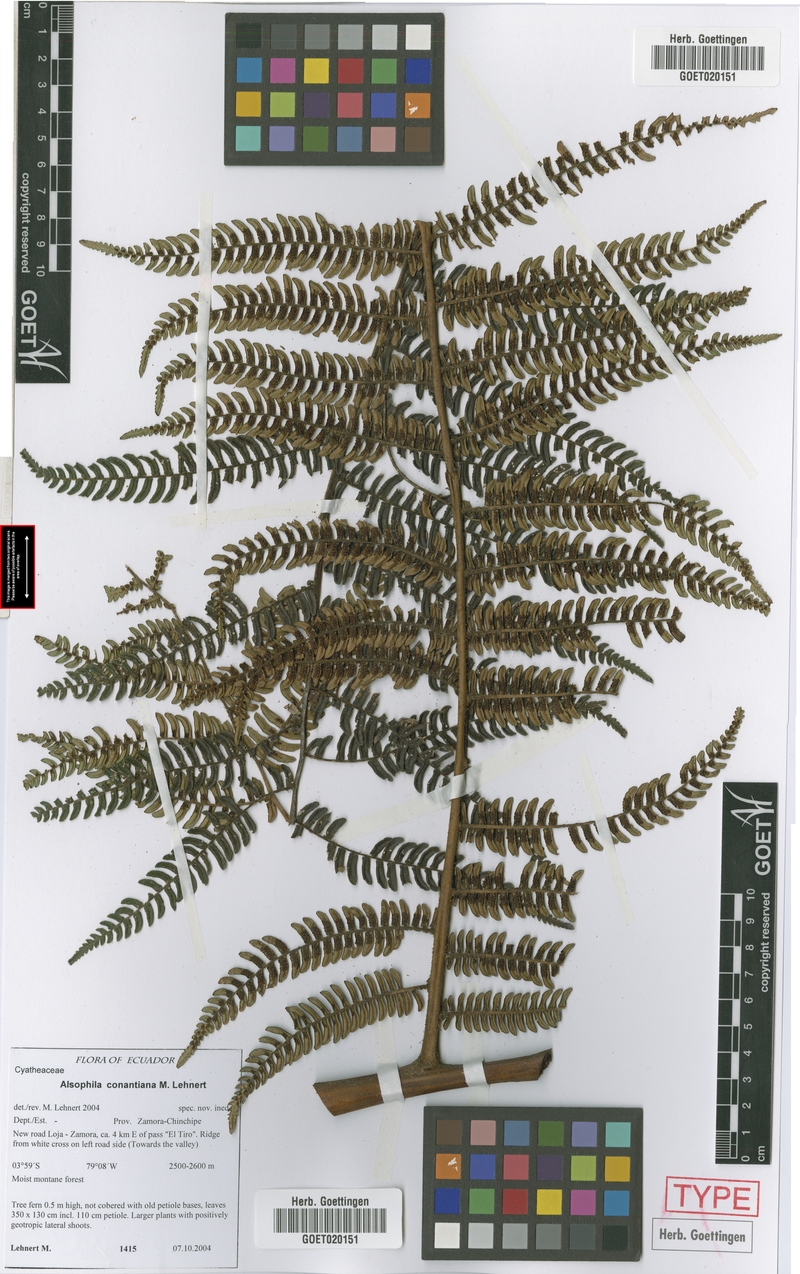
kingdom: Plantae
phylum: Tracheophyta
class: Polypodiopsida
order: Cyatheales
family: Cyatheaceae
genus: Alsophila
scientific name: Alsophila conantiana
